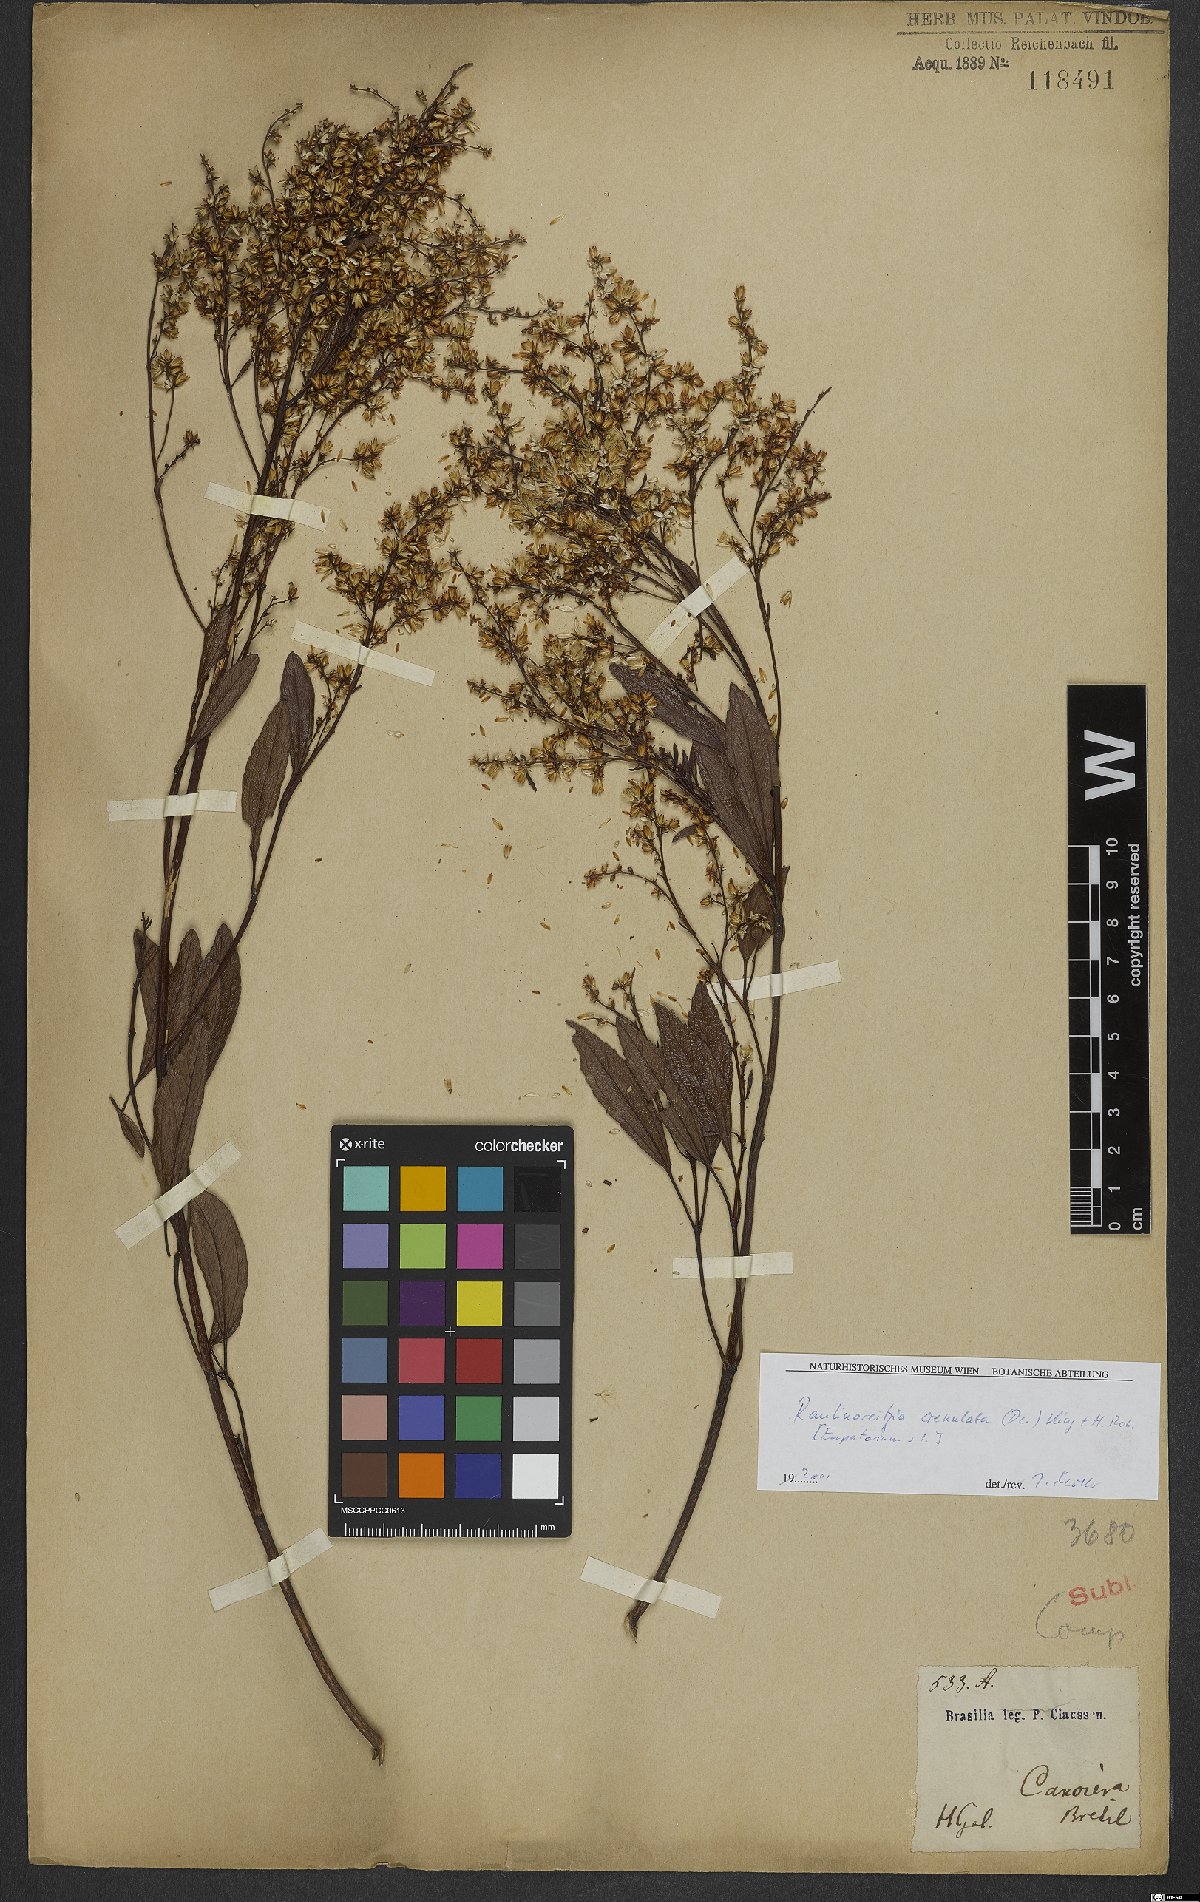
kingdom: Plantae
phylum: Tracheophyta
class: Magnoliopsida
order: Asterales
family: Asteraceae
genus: Raulinoreitzia
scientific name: Raulinoreitzia crenulata
